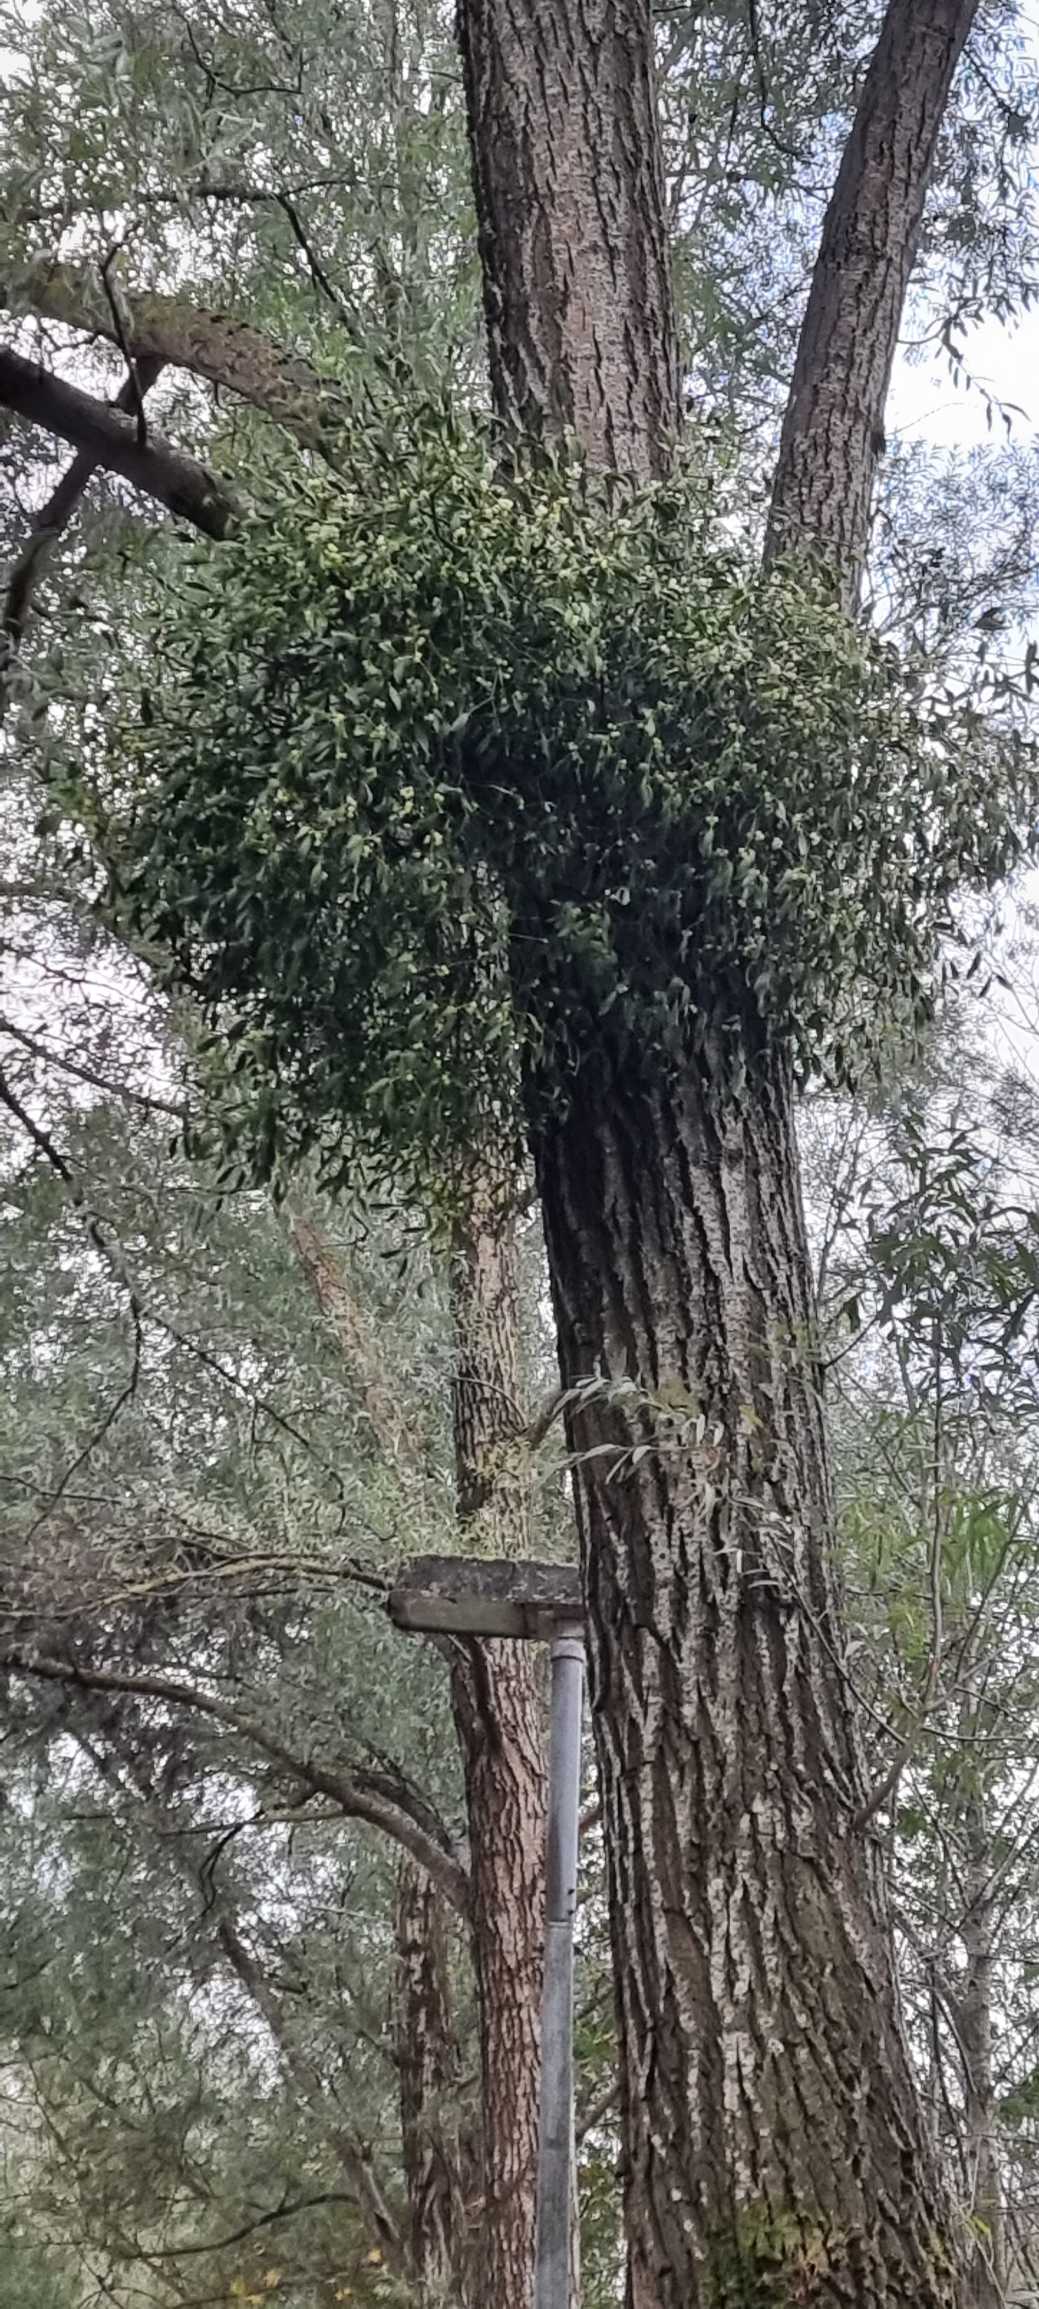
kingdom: Plantae
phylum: Tracheophyta
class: Magnoliopsida
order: Santalales
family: Viscaceae
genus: Viscum
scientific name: Viscum album
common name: Mistelten
